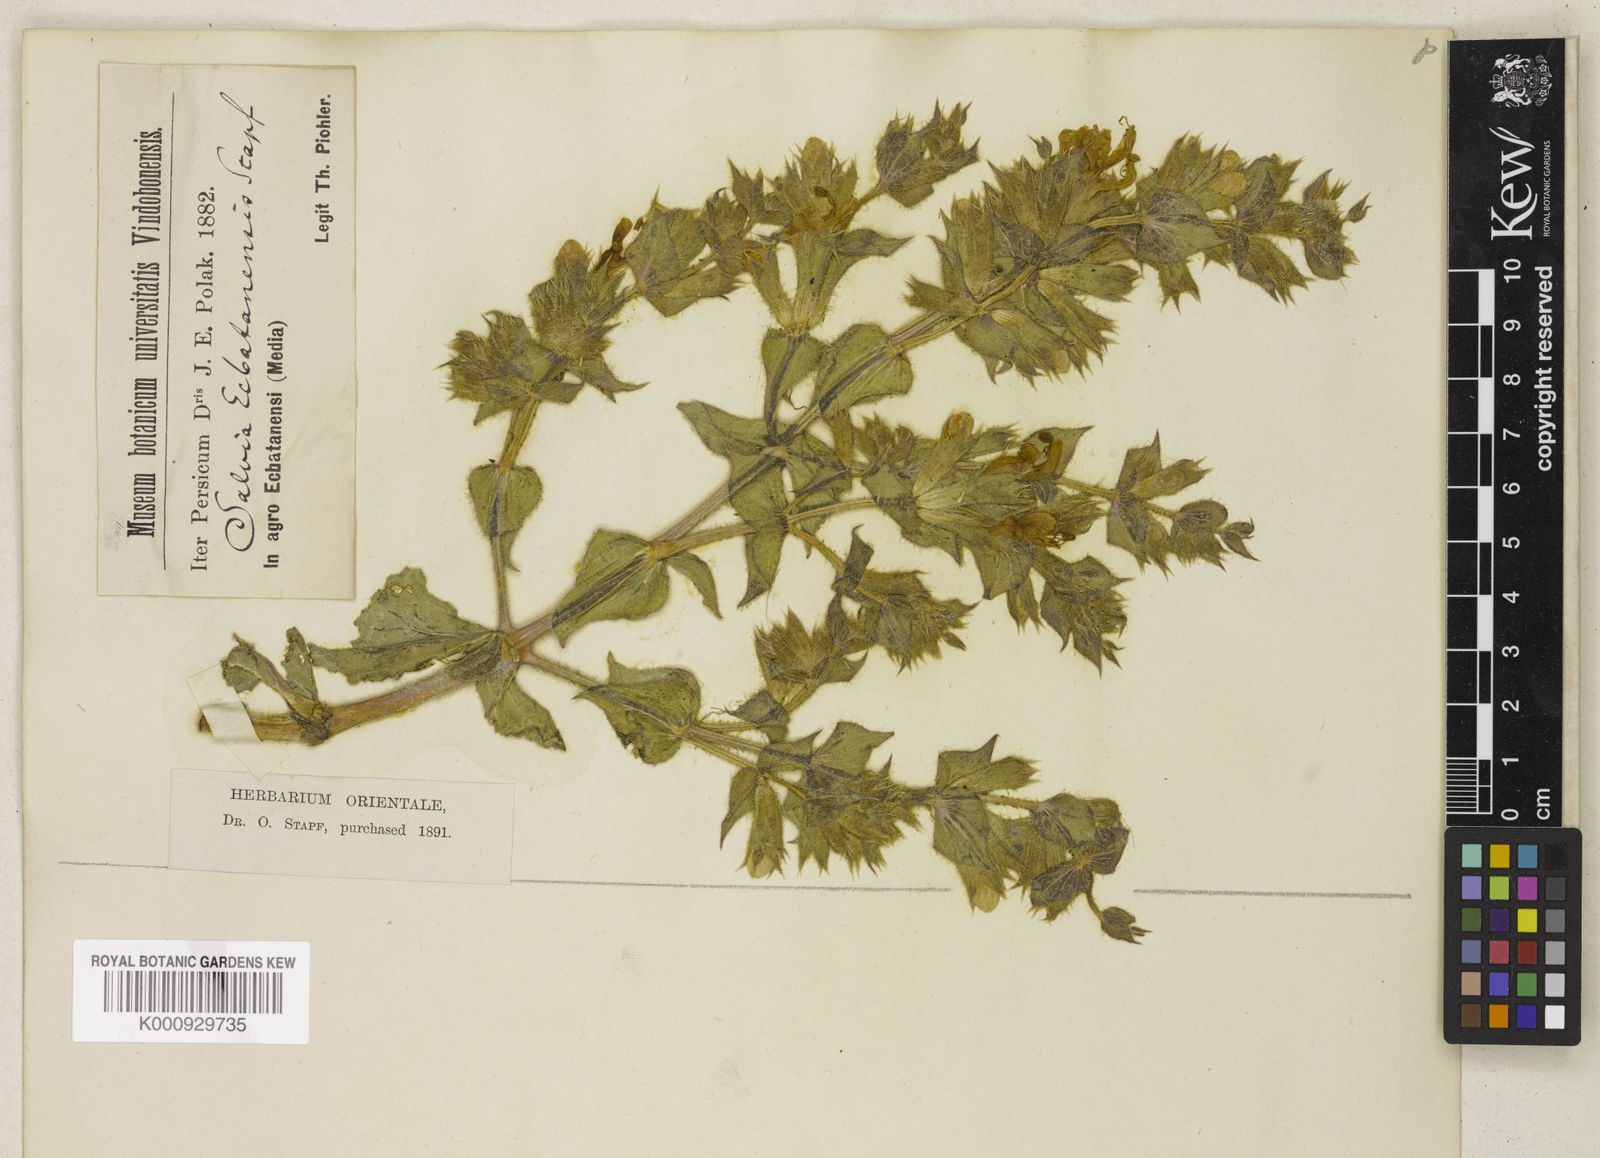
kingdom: Plantae
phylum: Tracheophyta
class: Magnoliopsida
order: Lamiales
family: Lamiaceae
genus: Salvia
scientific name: Salvia spinosa
